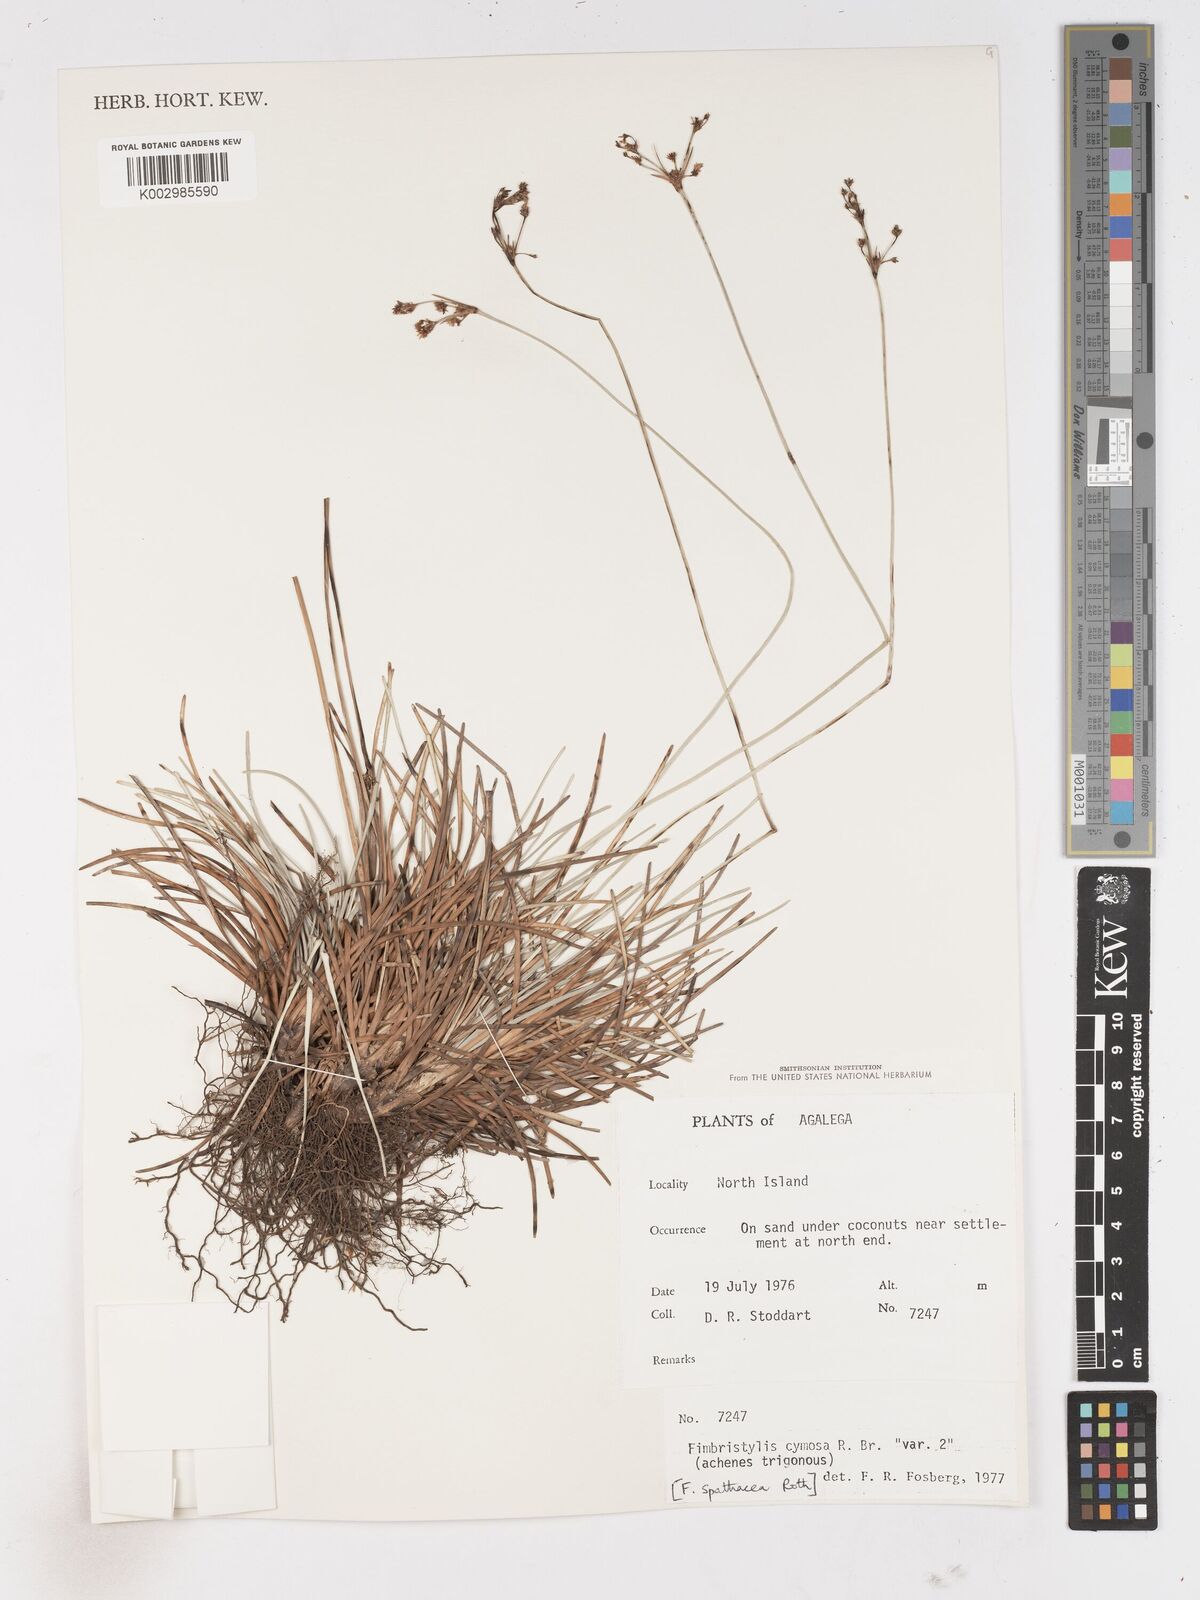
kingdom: Plantae
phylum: Tracheophyta
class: Liliopsida
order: Poales
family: Cyperaceae
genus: Fimbristylis
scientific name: Fimbristylis cymosa
